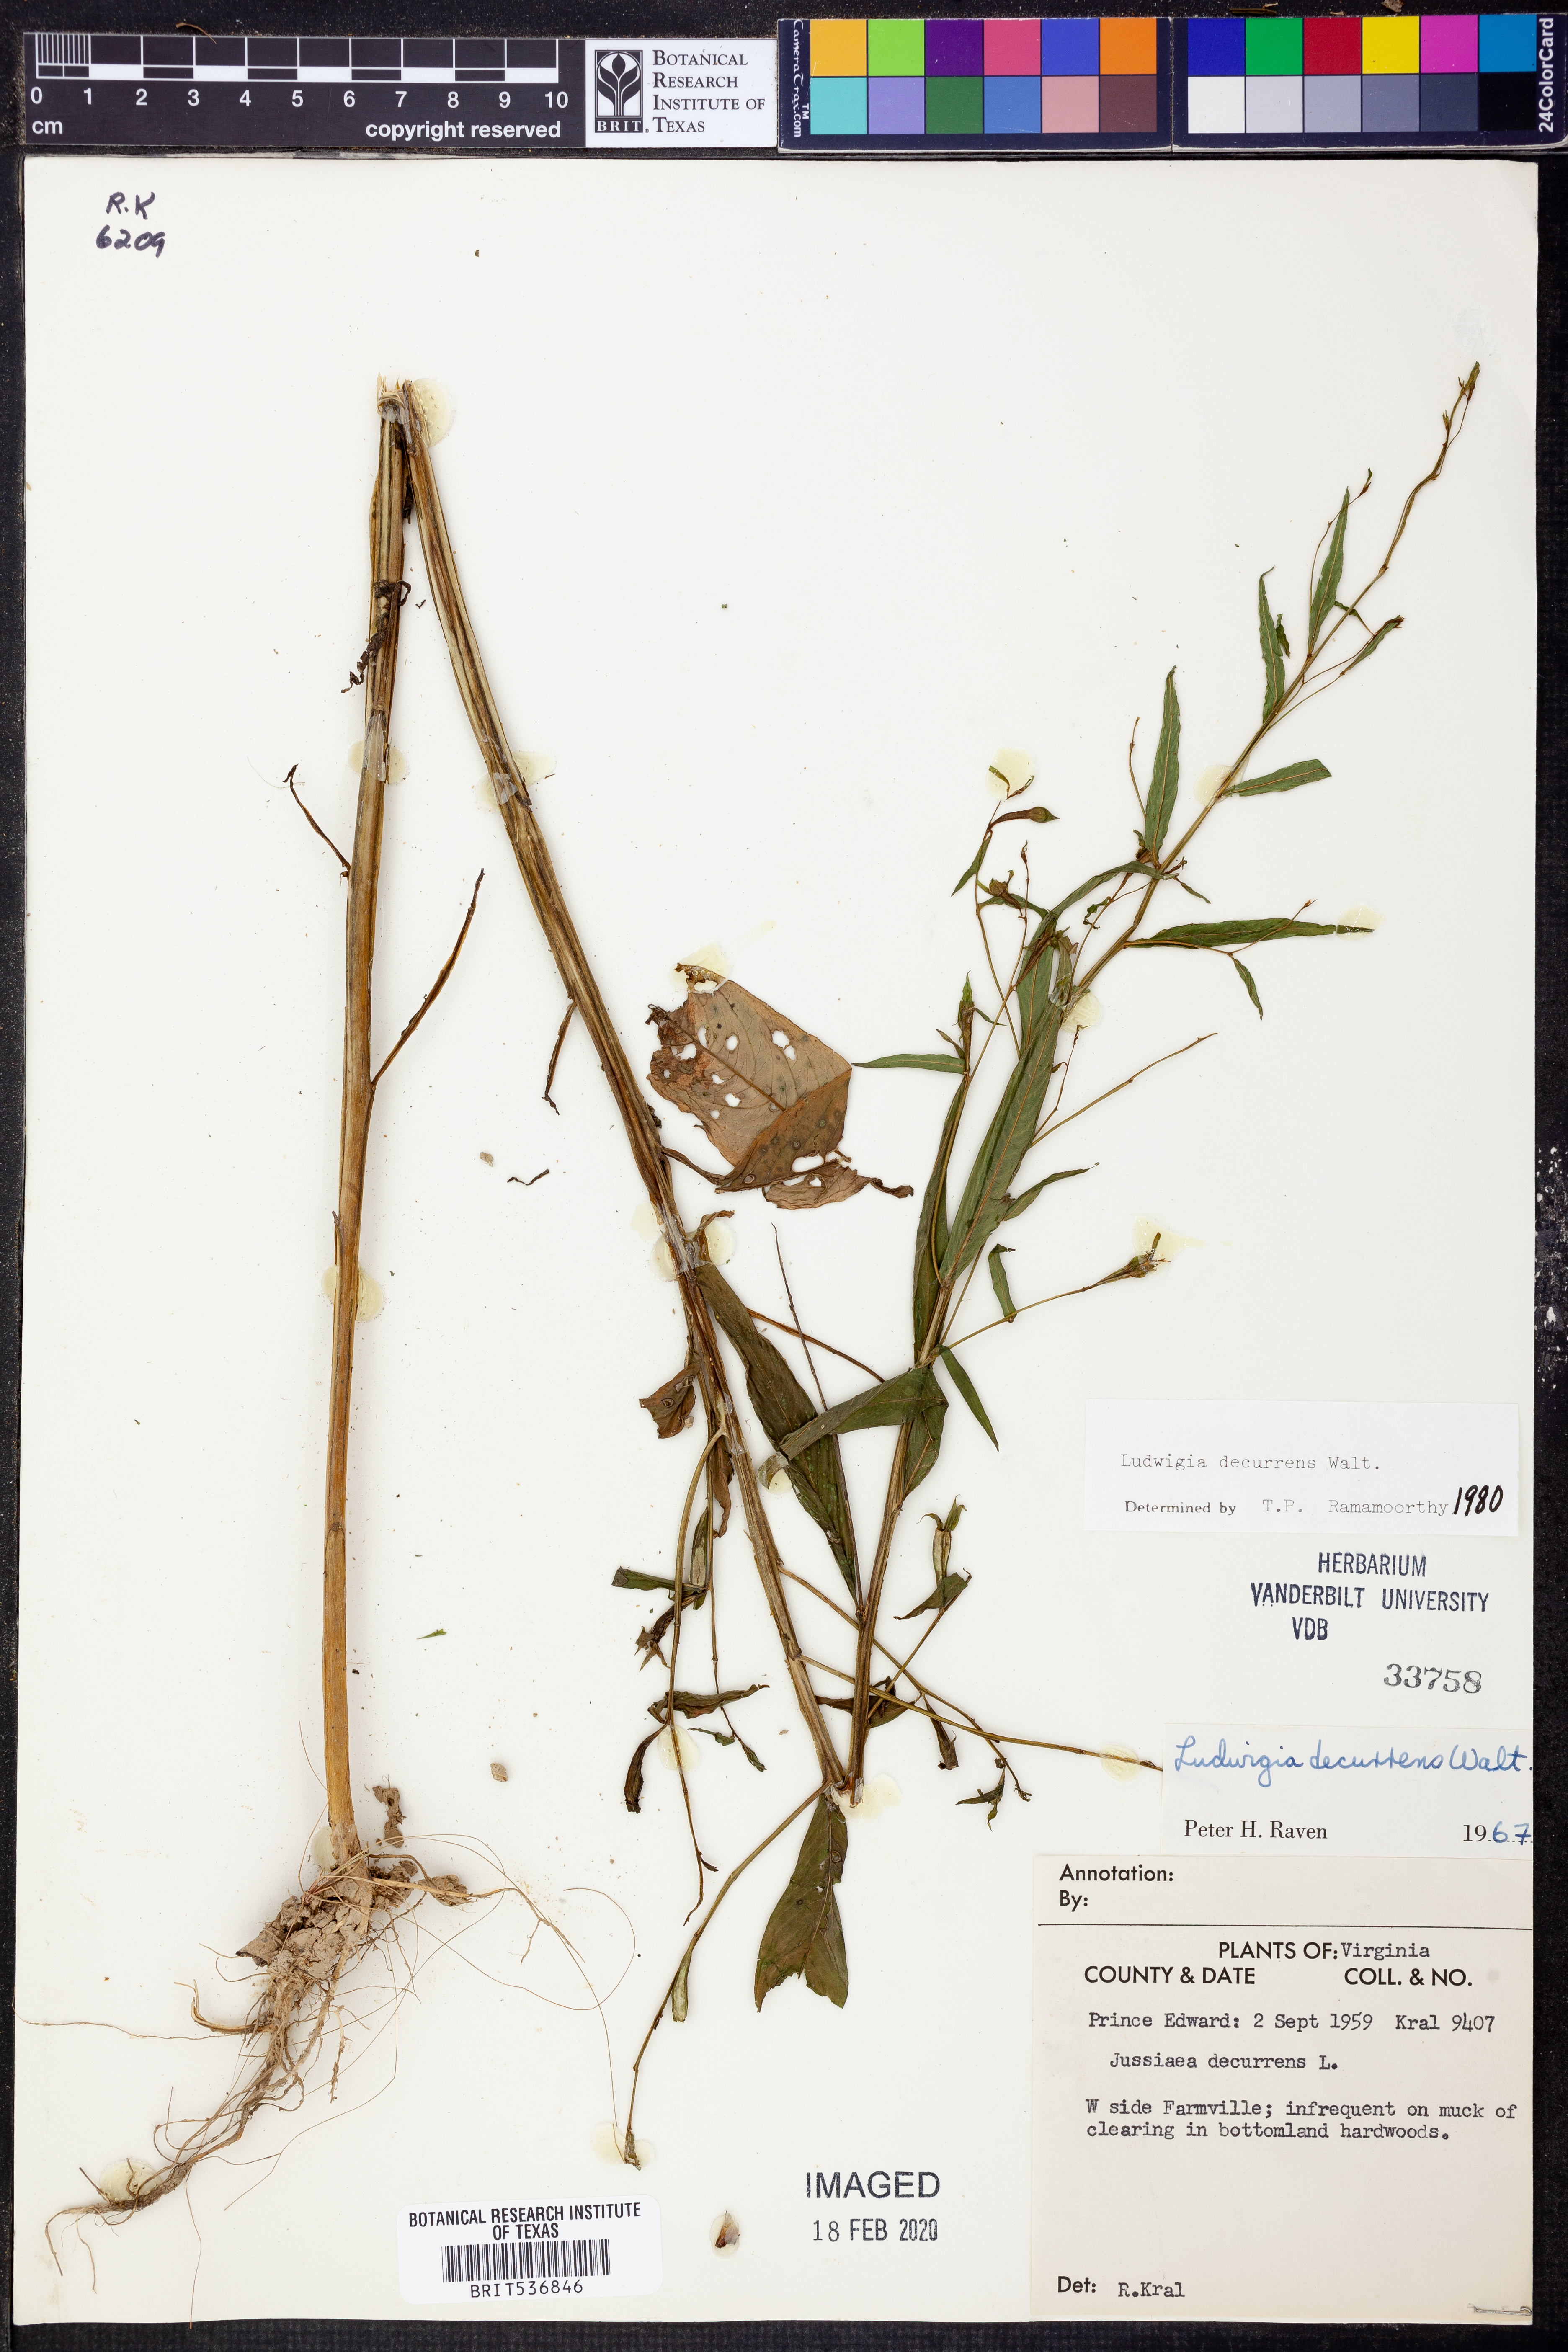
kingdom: Plantae
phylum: Tracheophyta
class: Magnoliopsida
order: Myrtales
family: Onagraceae
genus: Ludwigia
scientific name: Ludwigia decurrens
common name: Winged water-primrose
